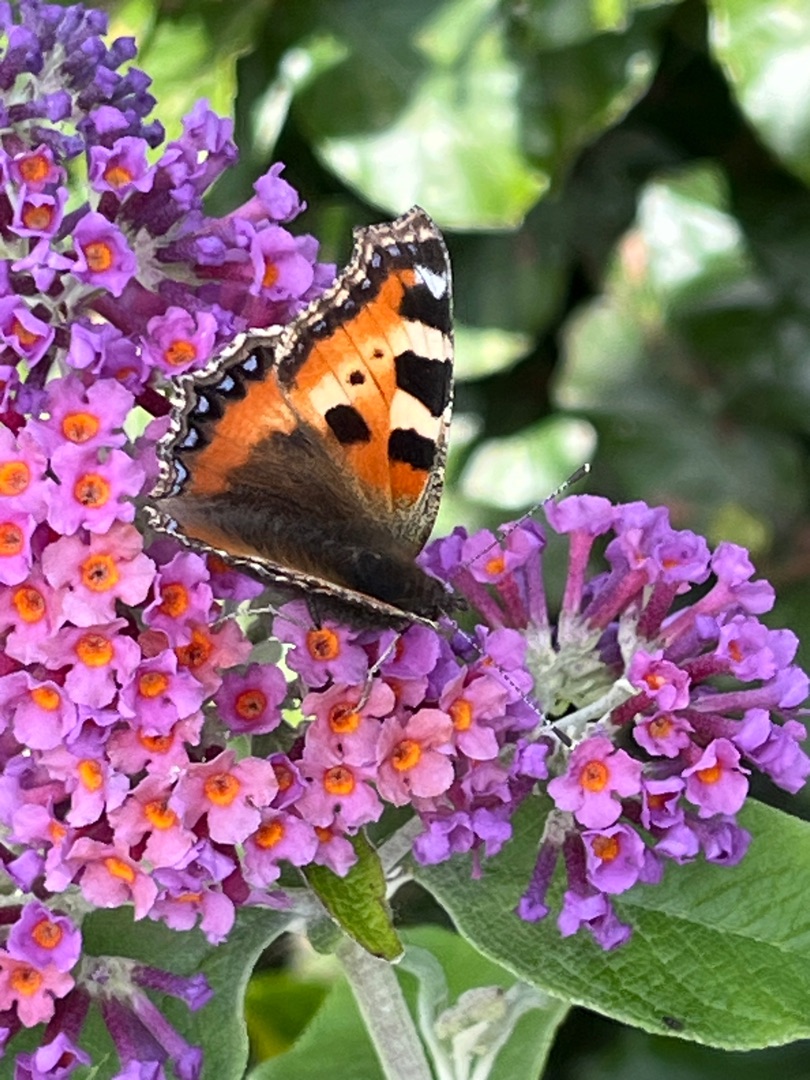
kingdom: Animalia
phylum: Arthropoda
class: Insecta
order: Lepidoptera
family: Nymphalidae
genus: Aglais
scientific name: Aglais urticae
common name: Nældens takvinge
